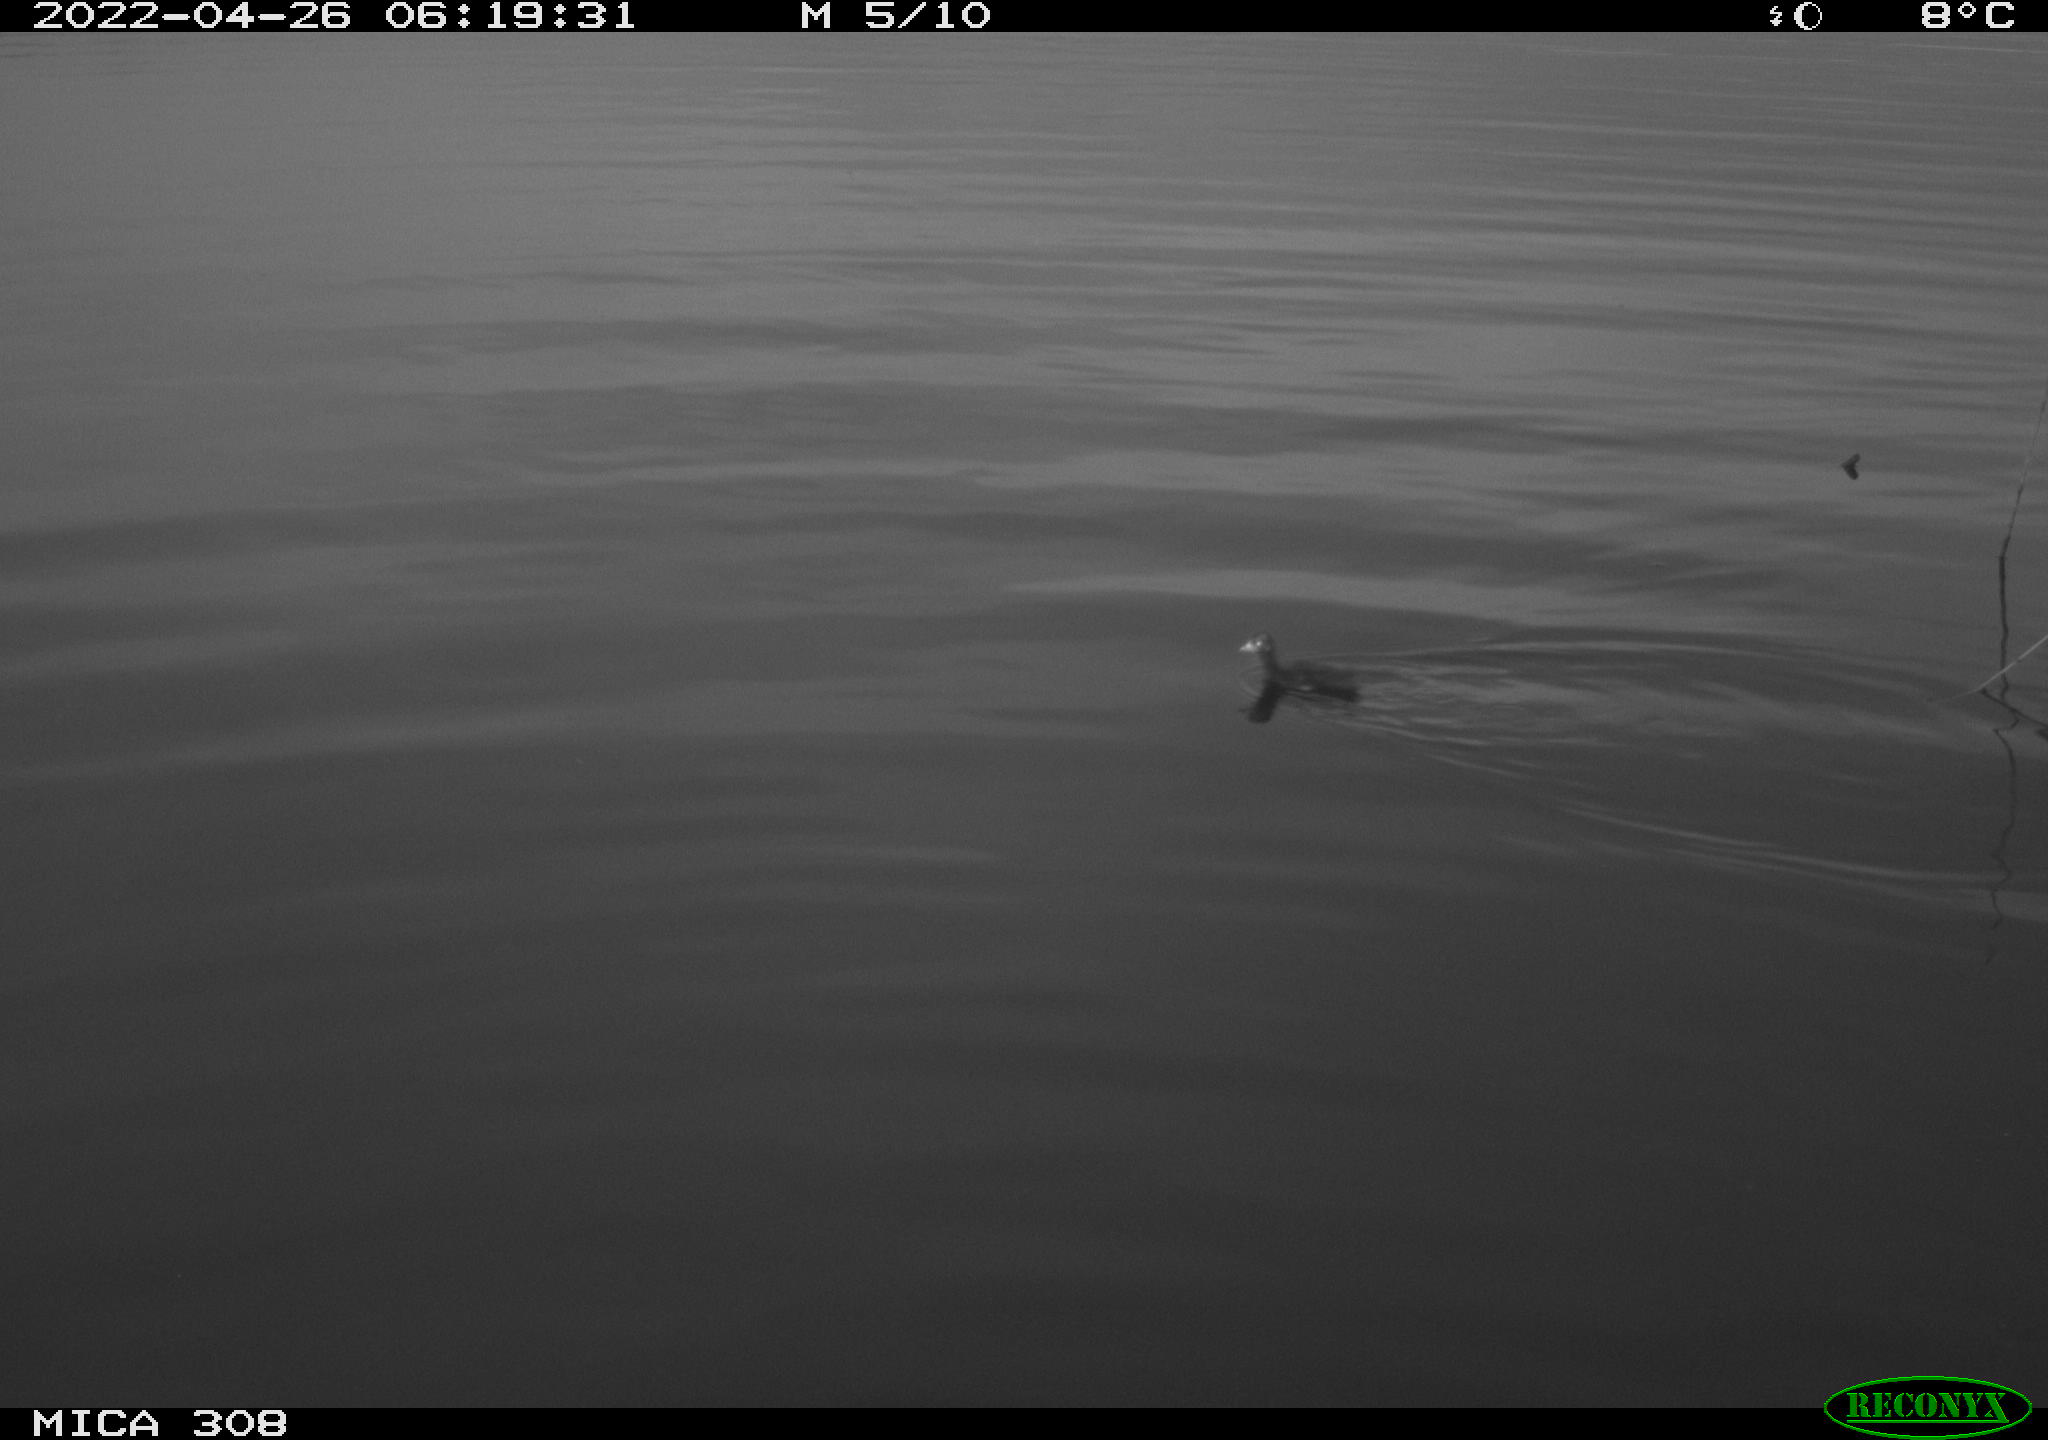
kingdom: Animalia
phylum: Chordata
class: Aves
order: Anseriformes
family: Anatidae
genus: Anas
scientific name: Anas platyrhynchos
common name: Mallard
